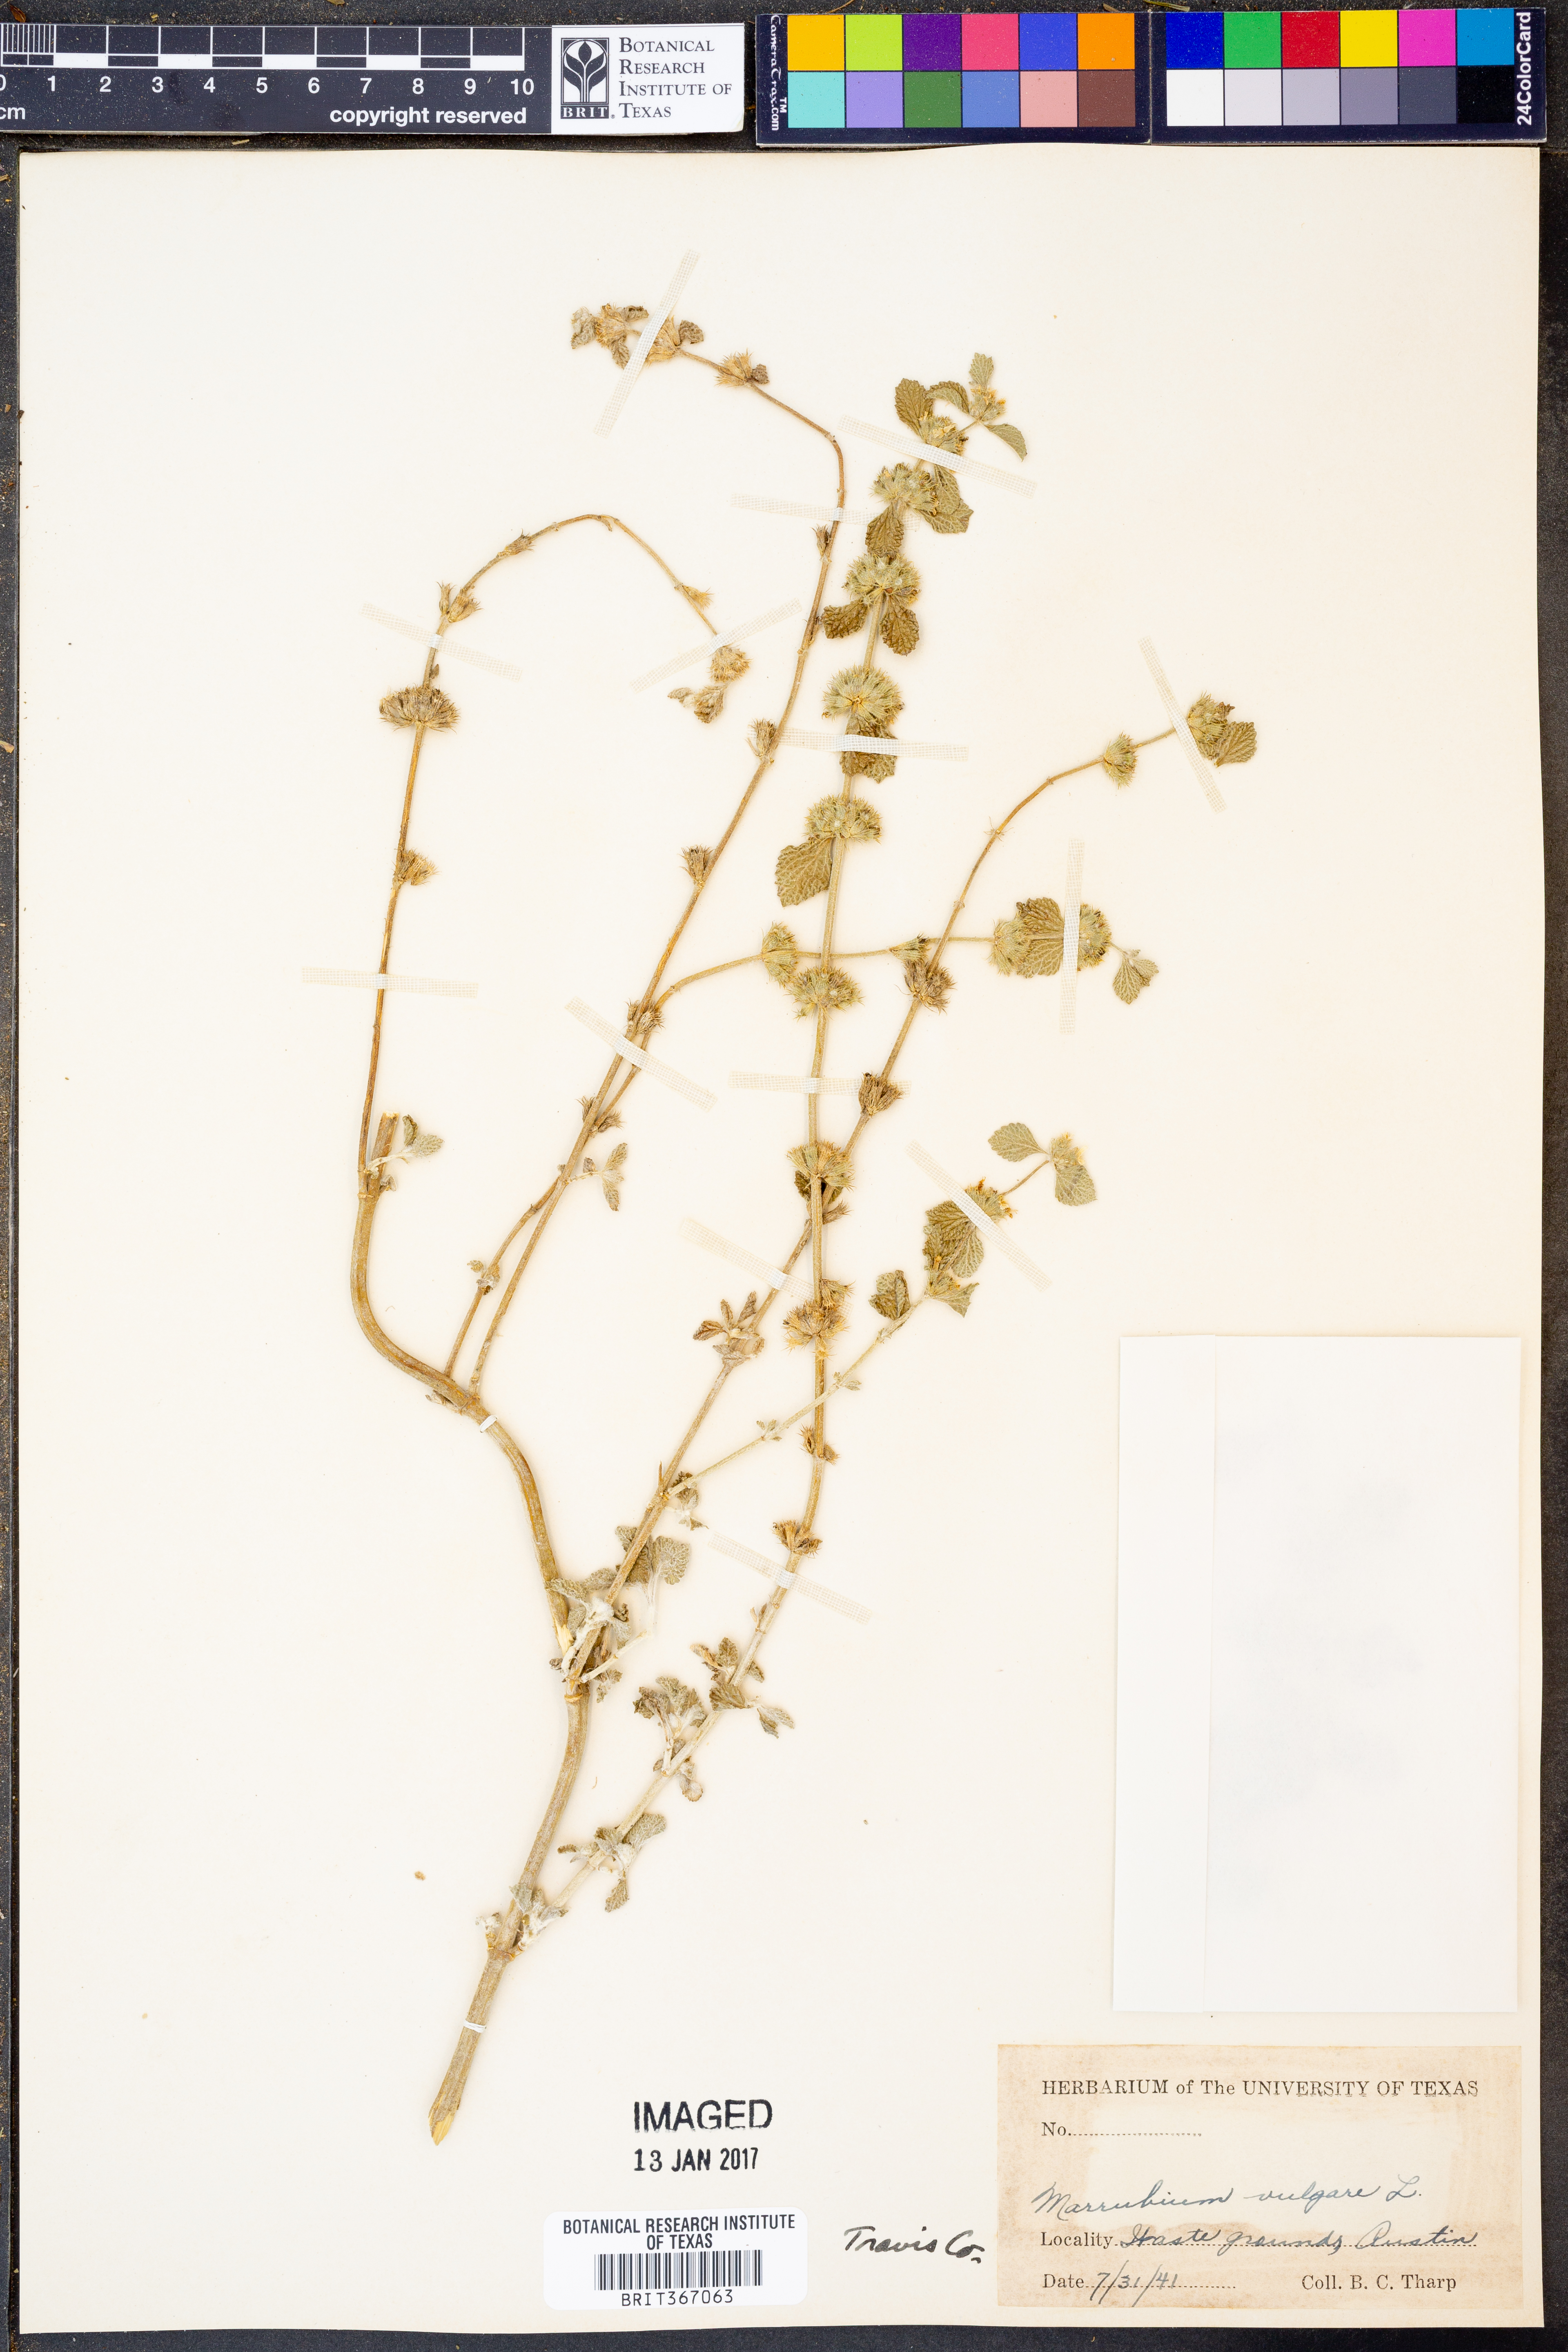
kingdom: Plantae
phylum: Tracheophyta
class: Magnoliopsida
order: Lamiales
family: Lamiaceae
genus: Marrubium
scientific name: Marrubium vulgare
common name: Horehound
